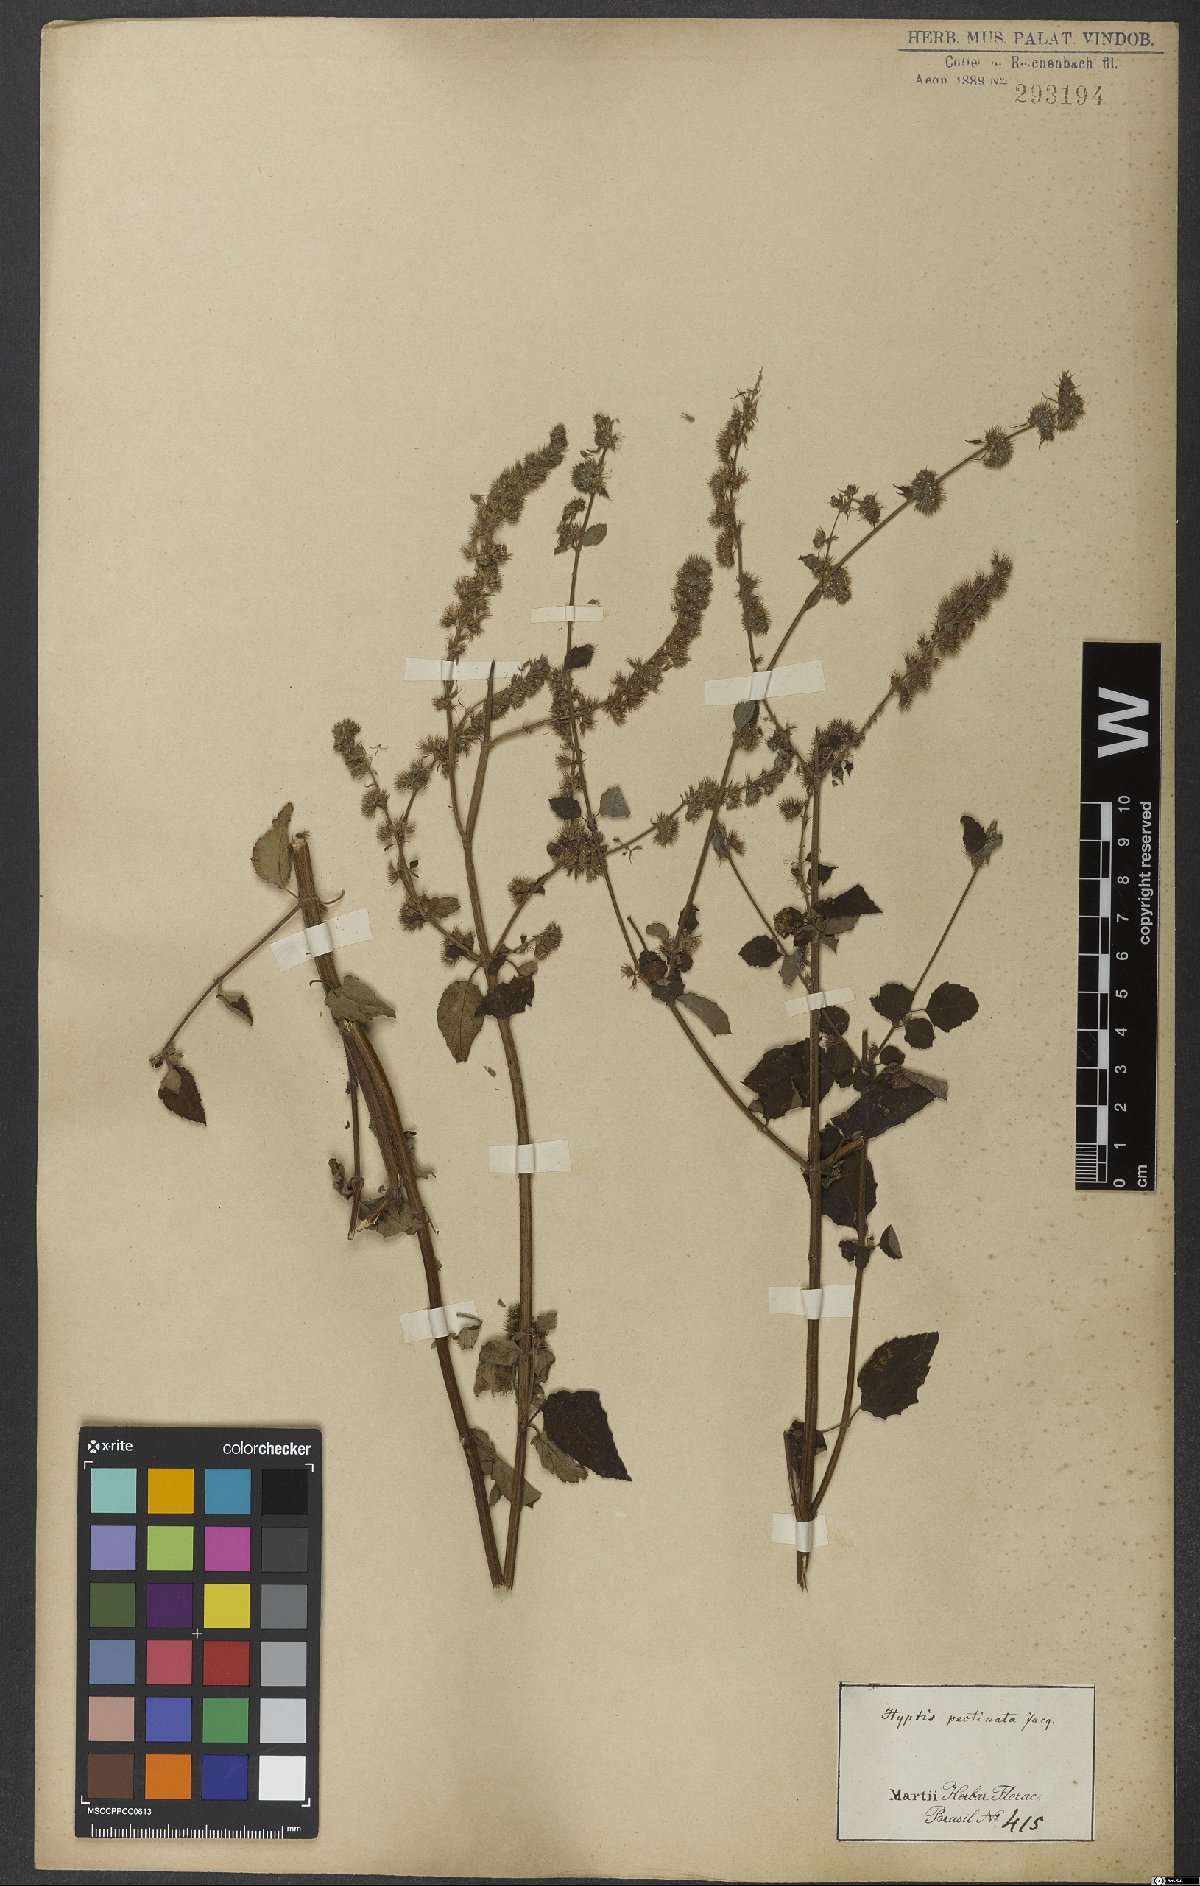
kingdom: Plantae
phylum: Tracheophyta
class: Magnoliopsida
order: Lamiales
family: Lamiaceae
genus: Mesosphaerum
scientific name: Mesosphaerum pectinatum
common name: Comb hyptis
